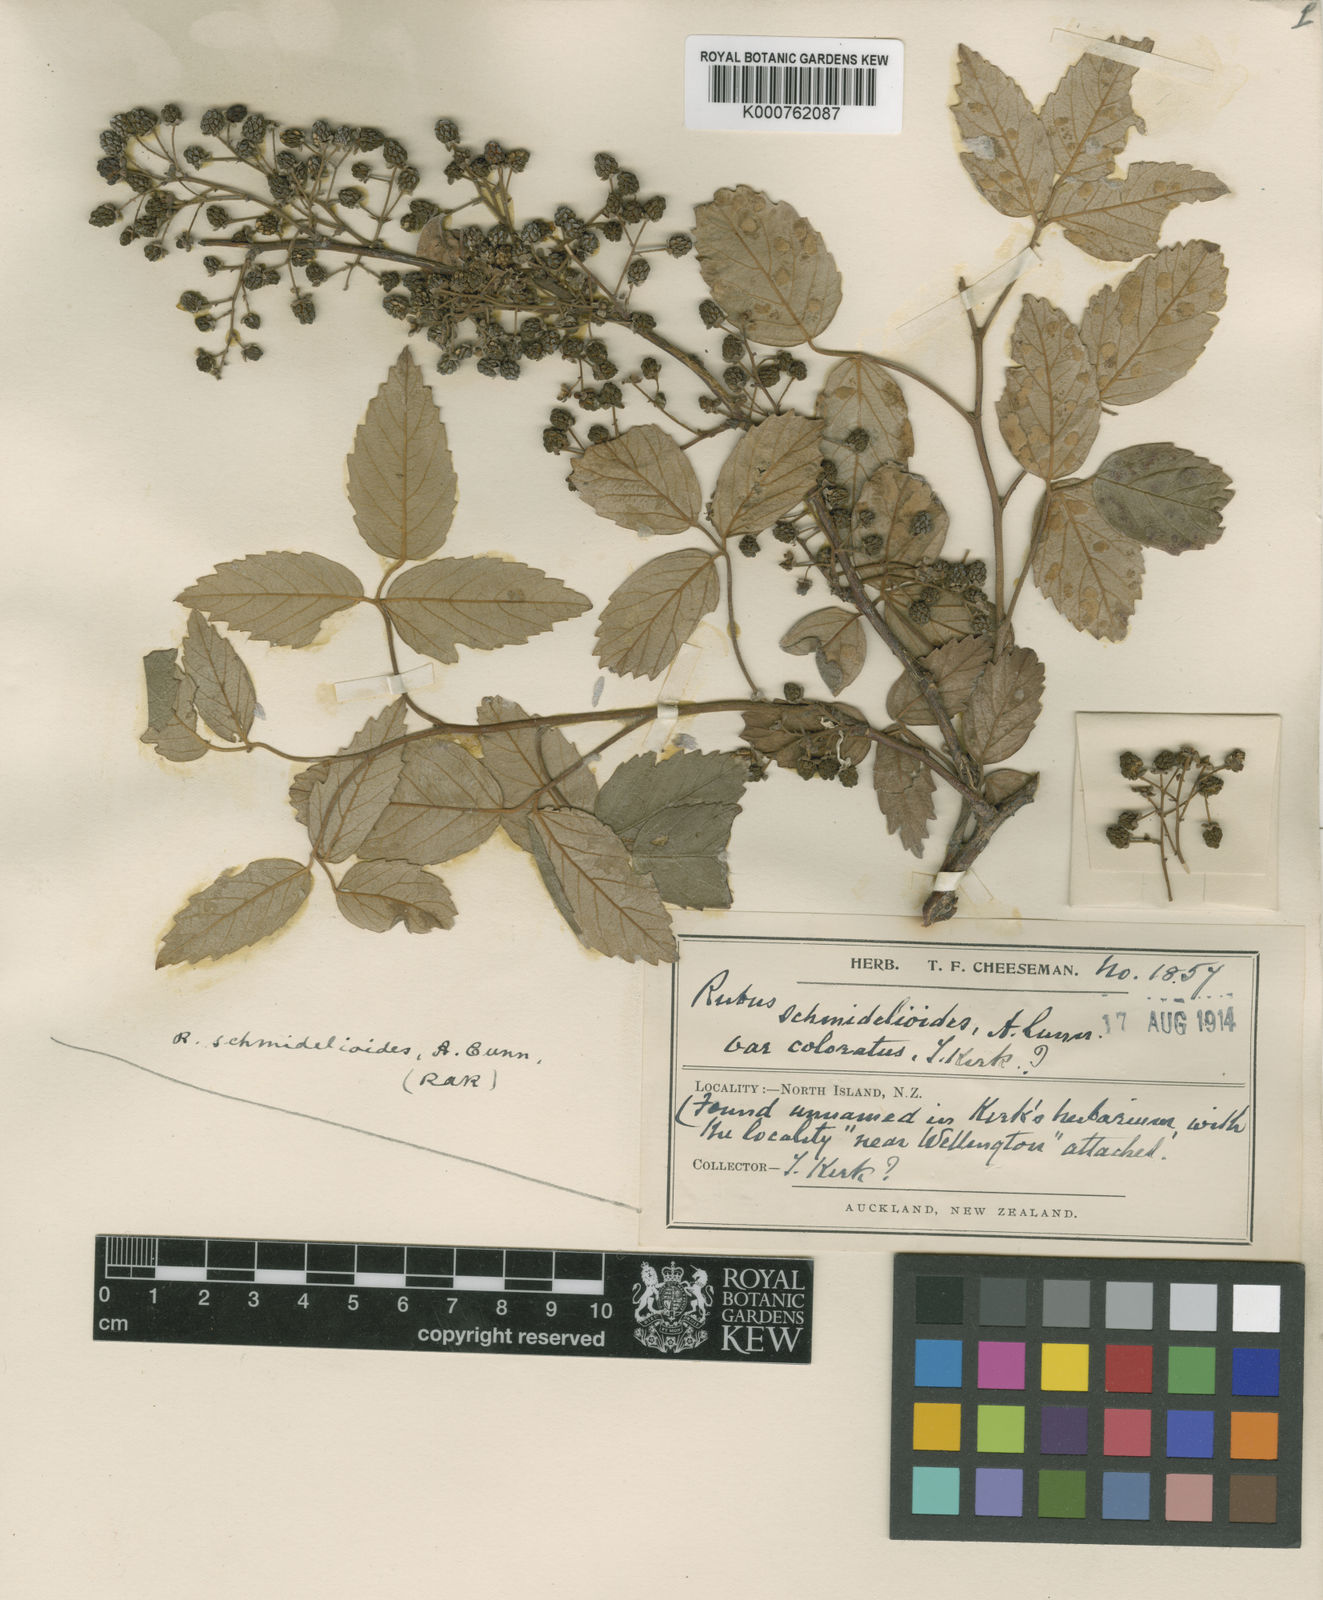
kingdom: Plantae
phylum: Tracheophyta
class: Magnoliopsida
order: Rosales
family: Rosaceae
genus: Rubus
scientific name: Rubus schmidelioides
